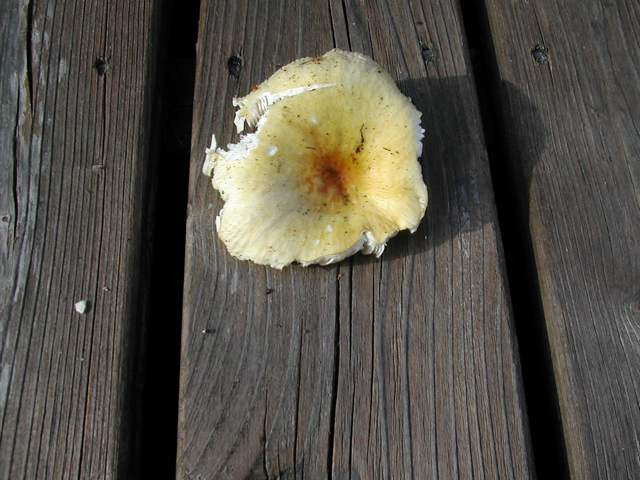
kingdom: Fungi
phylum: Basidiomycota
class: Agaricomycetes
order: Russulales
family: Russulaceae
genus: Russula
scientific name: Russula solaris
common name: sol-skørhat
